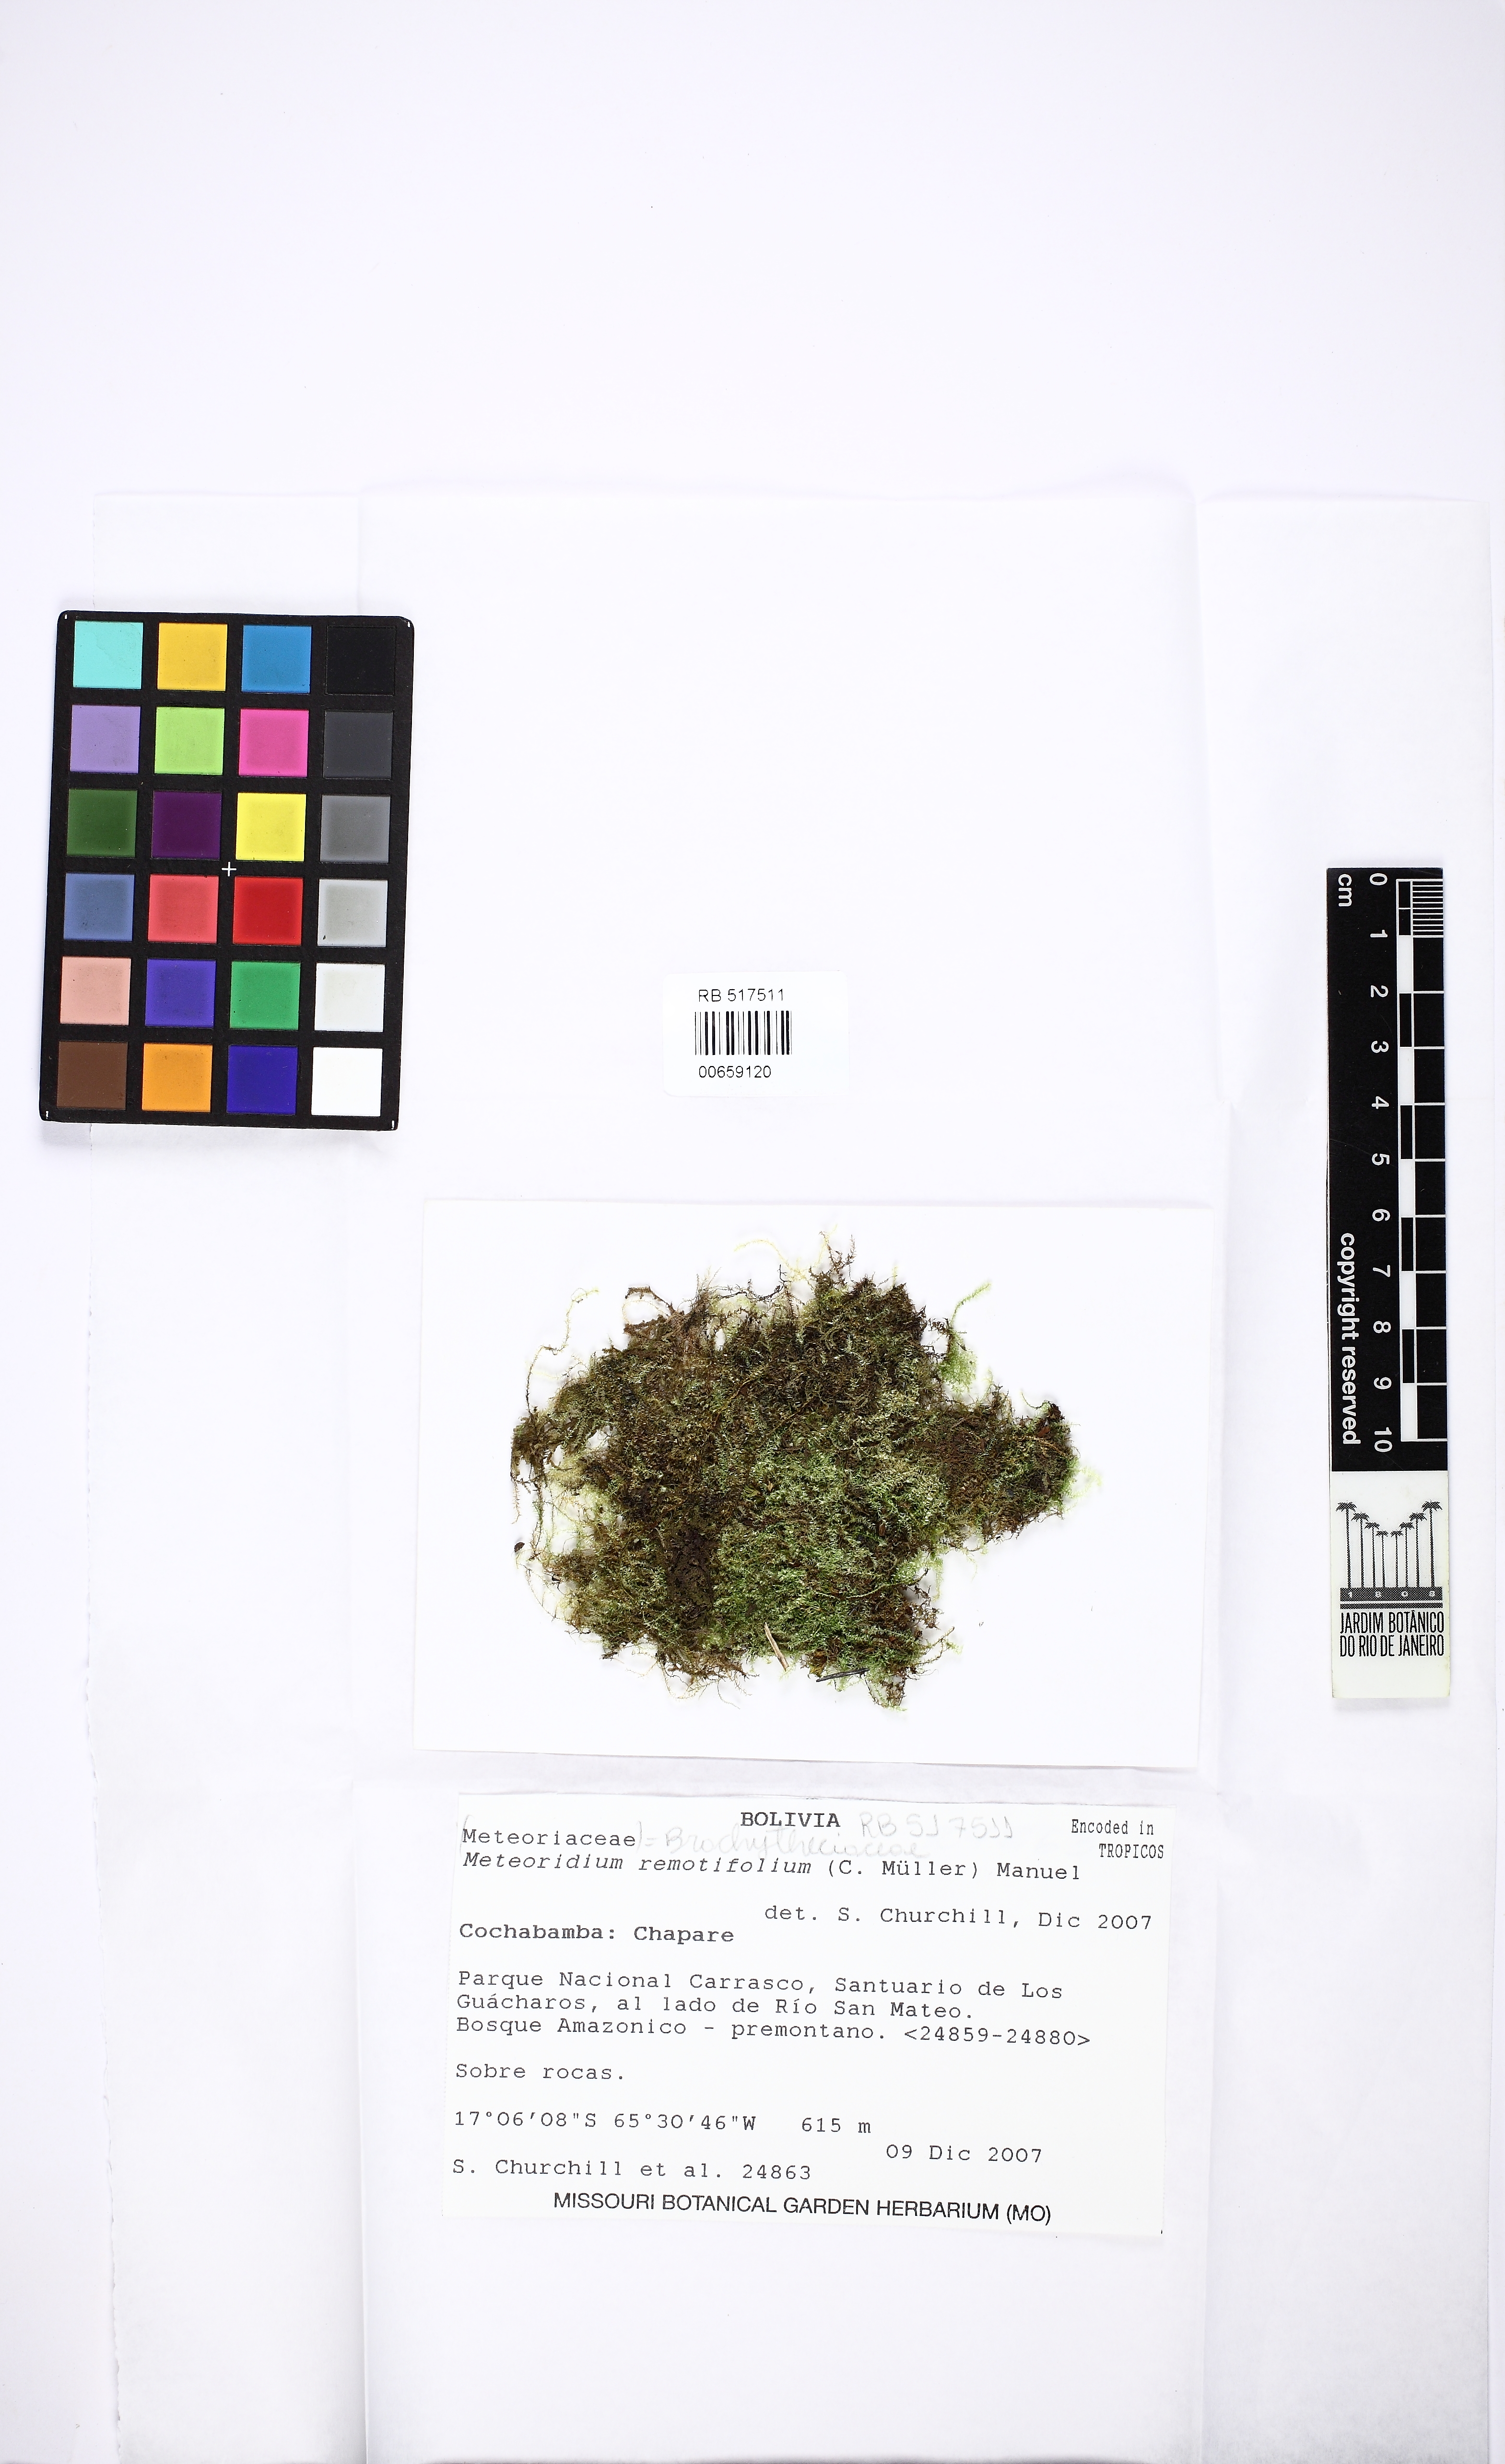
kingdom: Plantae
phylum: Bryophyta
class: Bryopsida
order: Hypnales
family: Brachytheciaceae
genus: Meteoridium
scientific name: Meteoridium remotifolium
